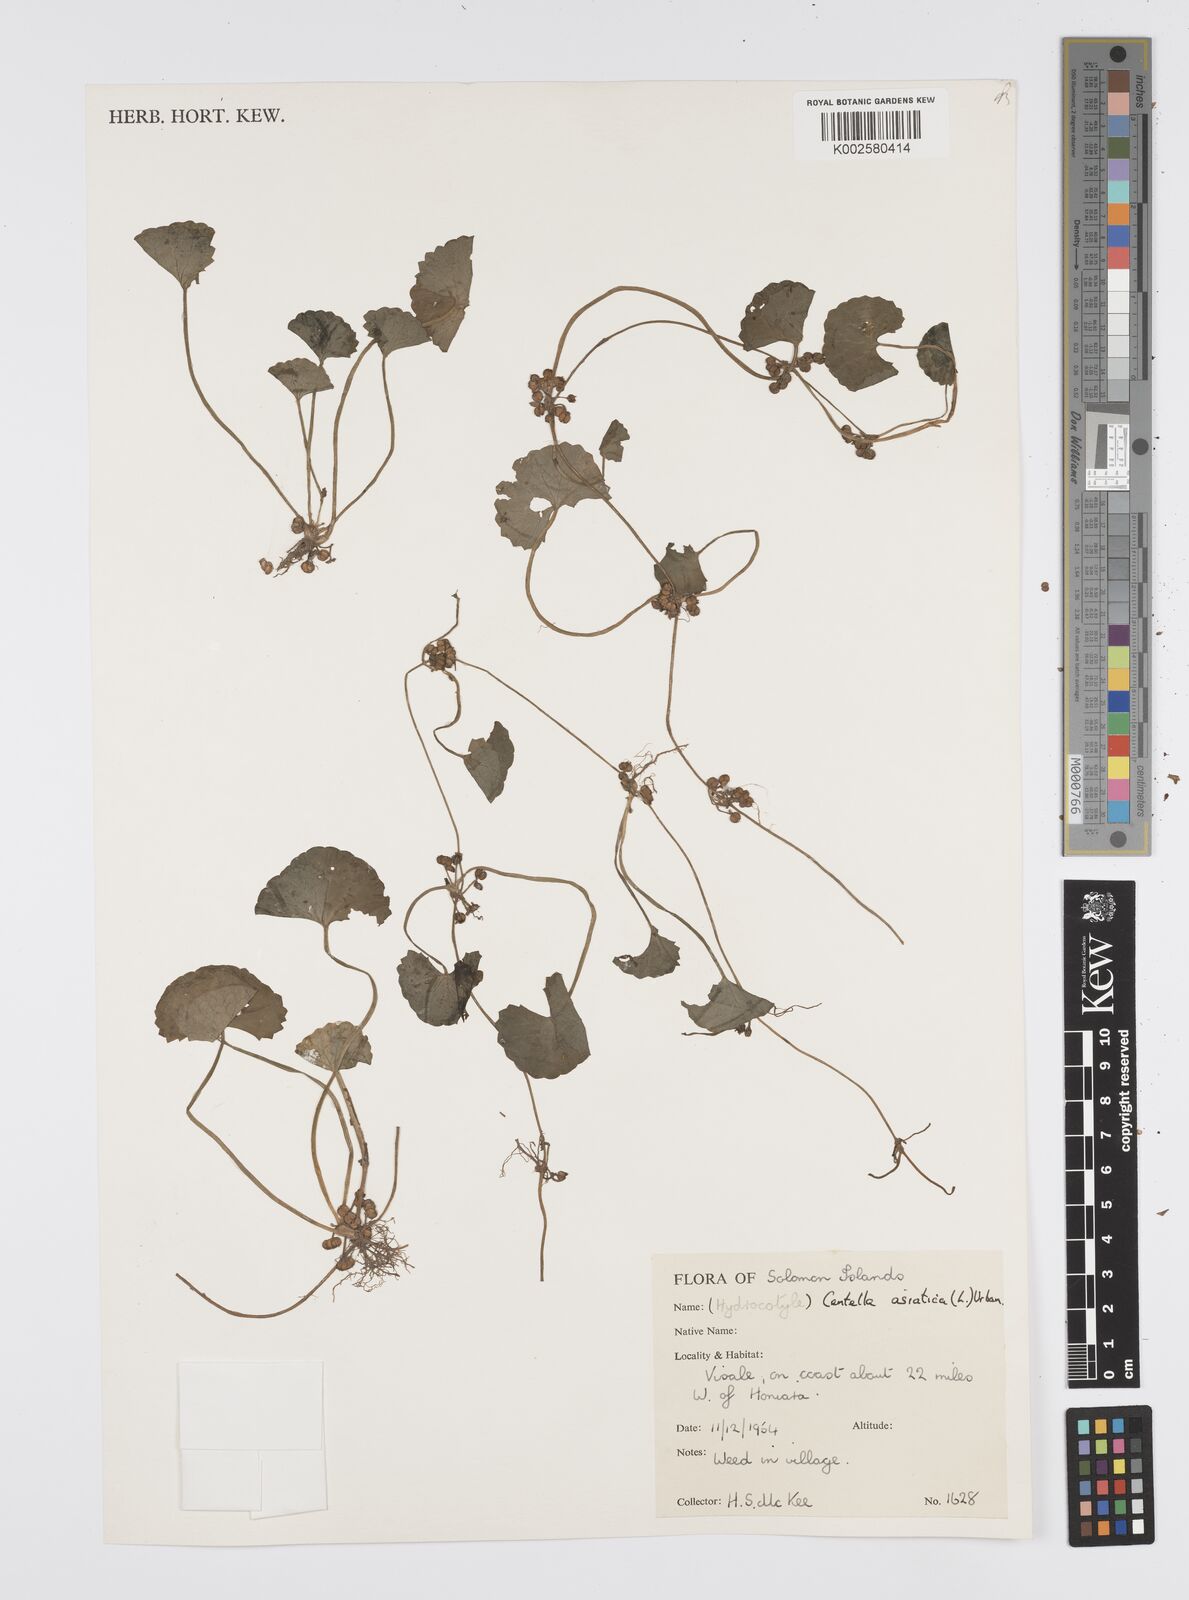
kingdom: Plantae
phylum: Tracheophyta
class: Magnoliopsida
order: Apiales
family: Apiaceae
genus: Centella
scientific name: Centella asiatica
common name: Spadeleaf
